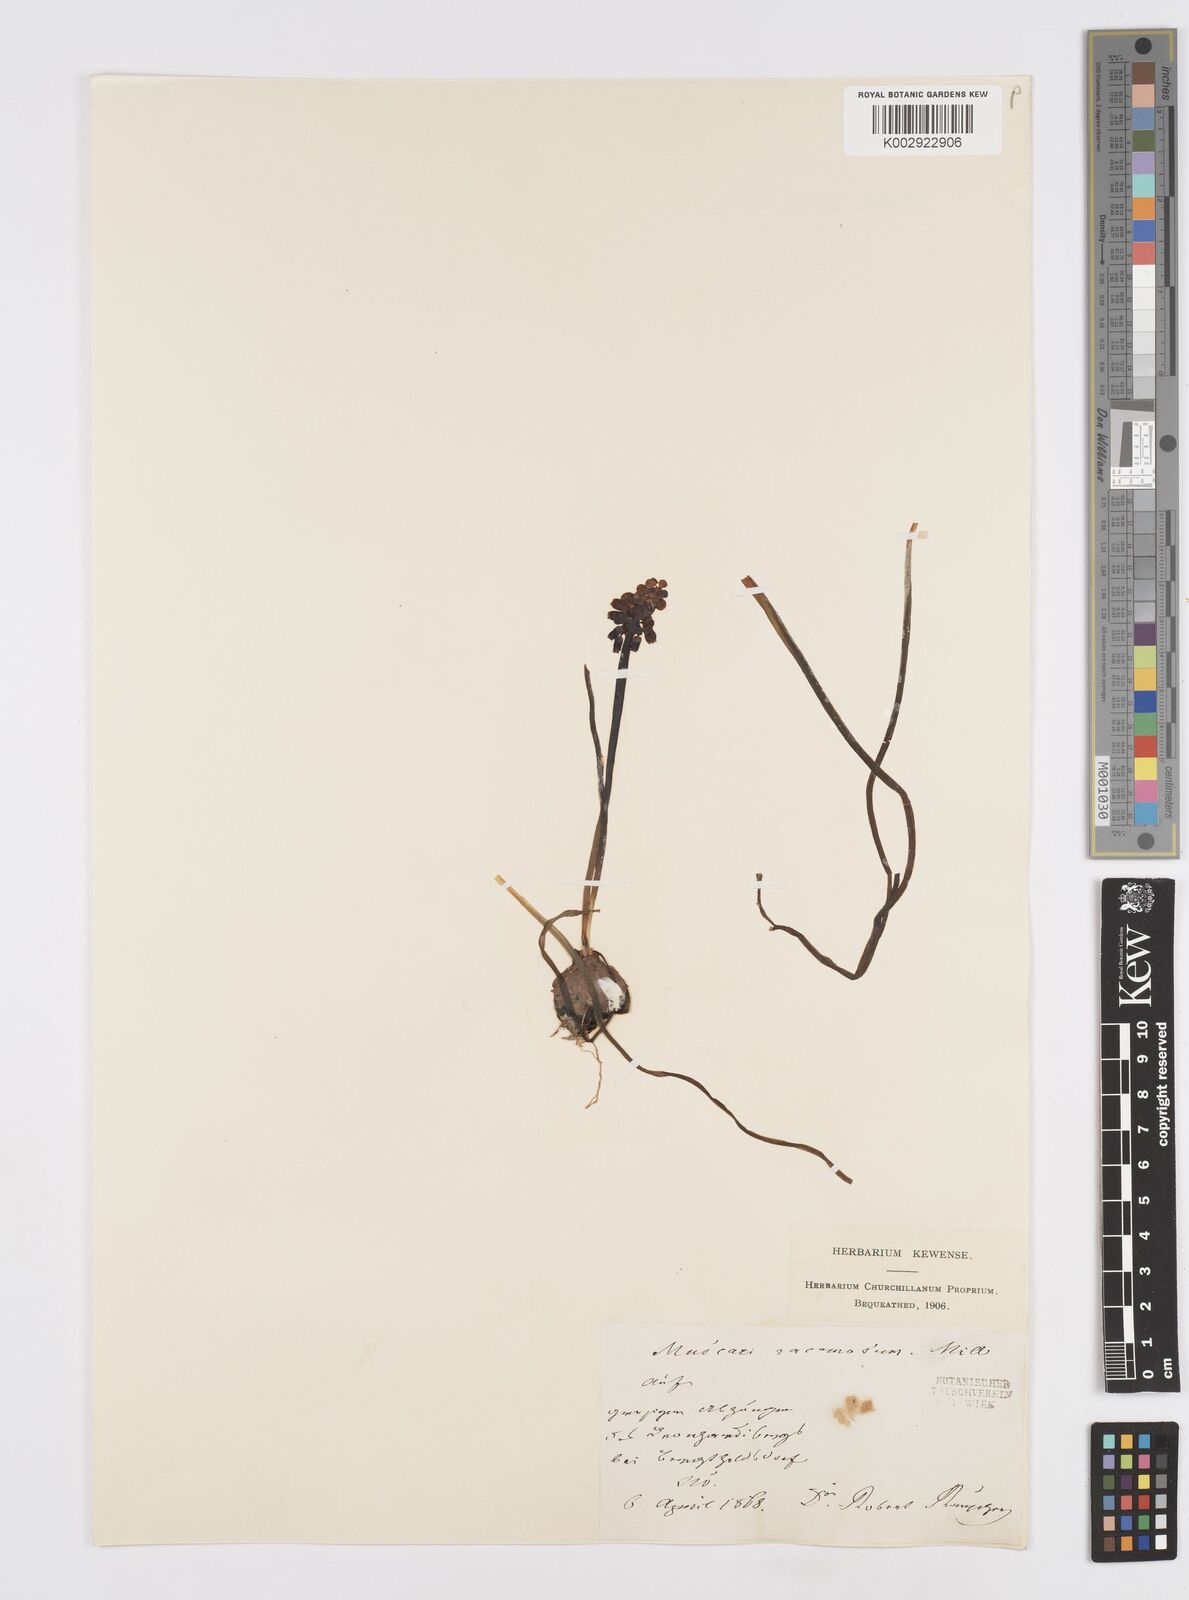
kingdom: Plantae
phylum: Tracheophyta
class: Liliopsida
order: Asparagales
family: Asparagaceae
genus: Muscarimia
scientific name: Muscarimia muscari
